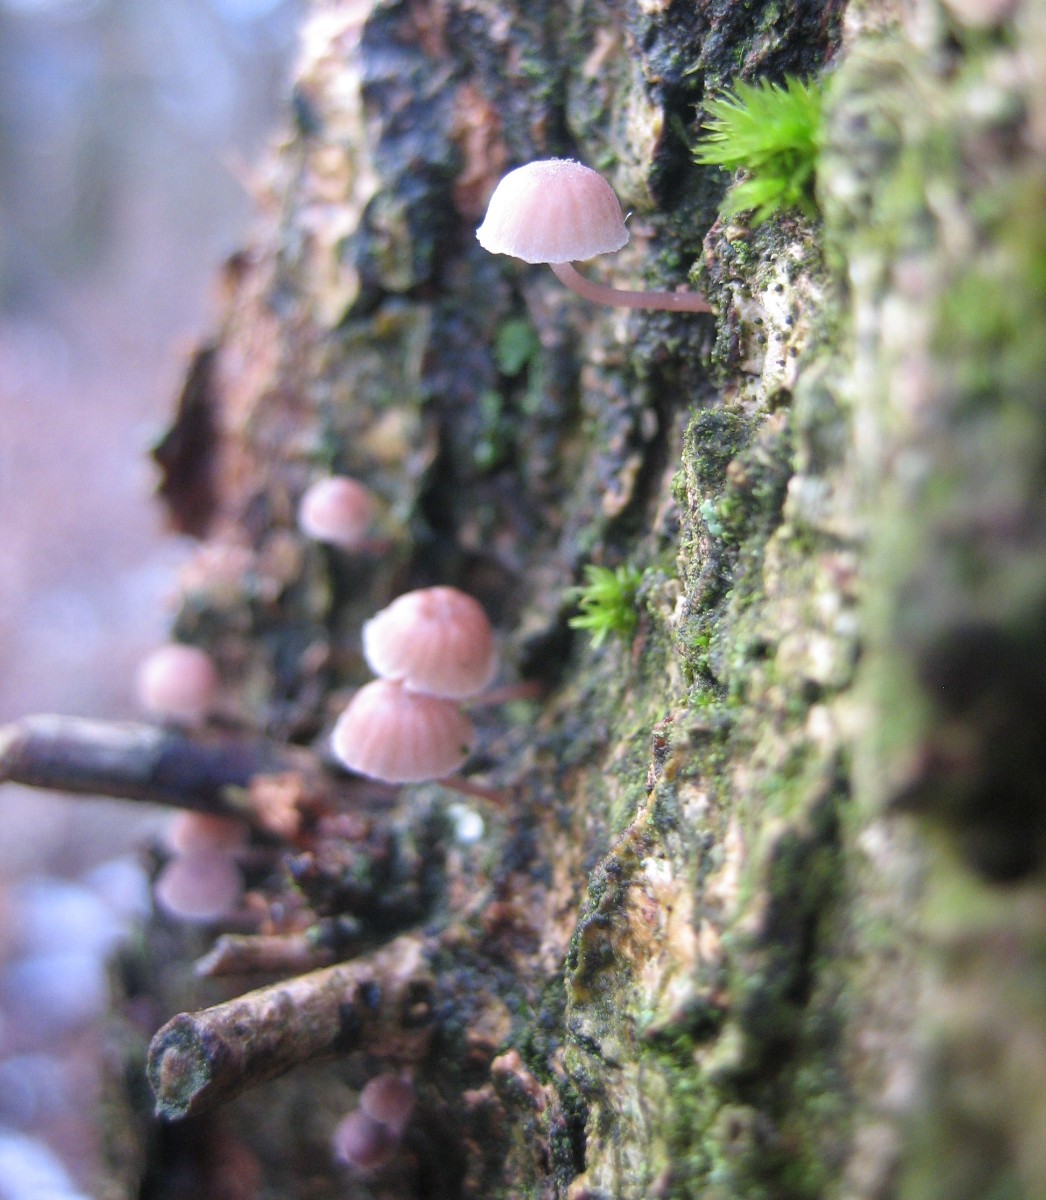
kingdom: Fungi
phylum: Basidiomycota
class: Agaricomycetes
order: Agaricales
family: Mycenaceae
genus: Mycena
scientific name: Mycena meliigena
